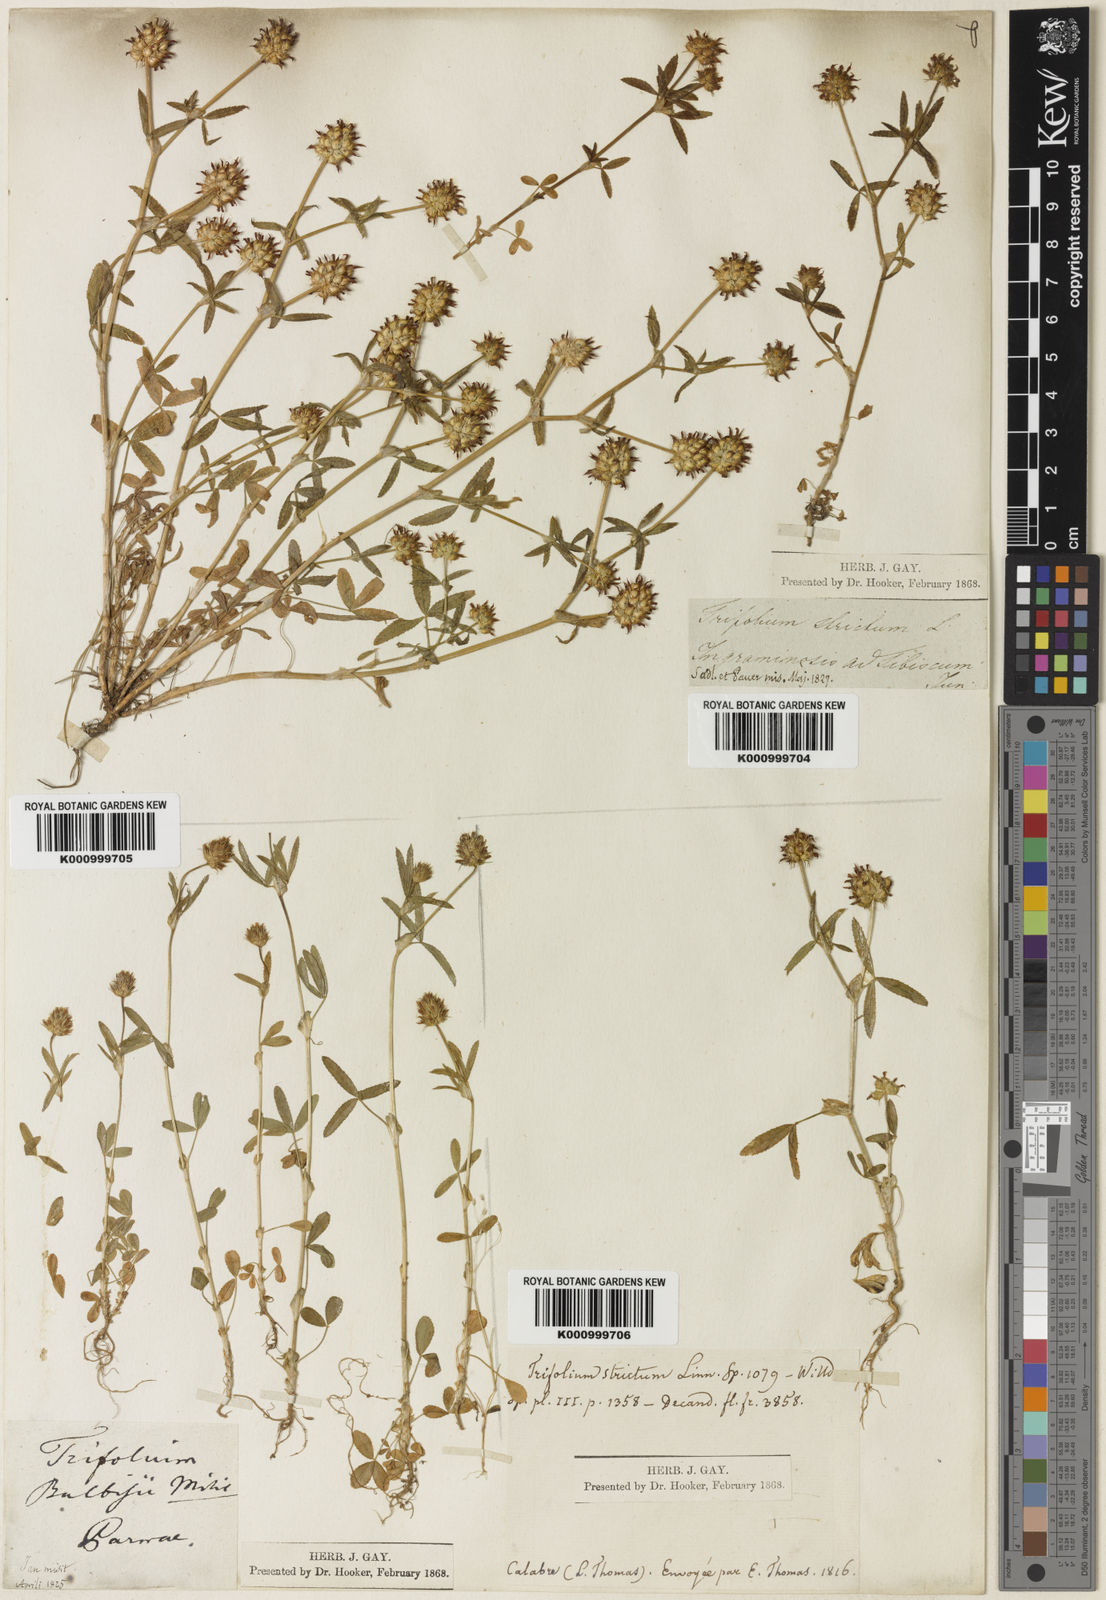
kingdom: Plantae
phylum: Tracheophyta
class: Magnoliopsida
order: Fabales
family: Fabaceae
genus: Trifolium
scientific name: Trifolium strictum
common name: Upright clover
